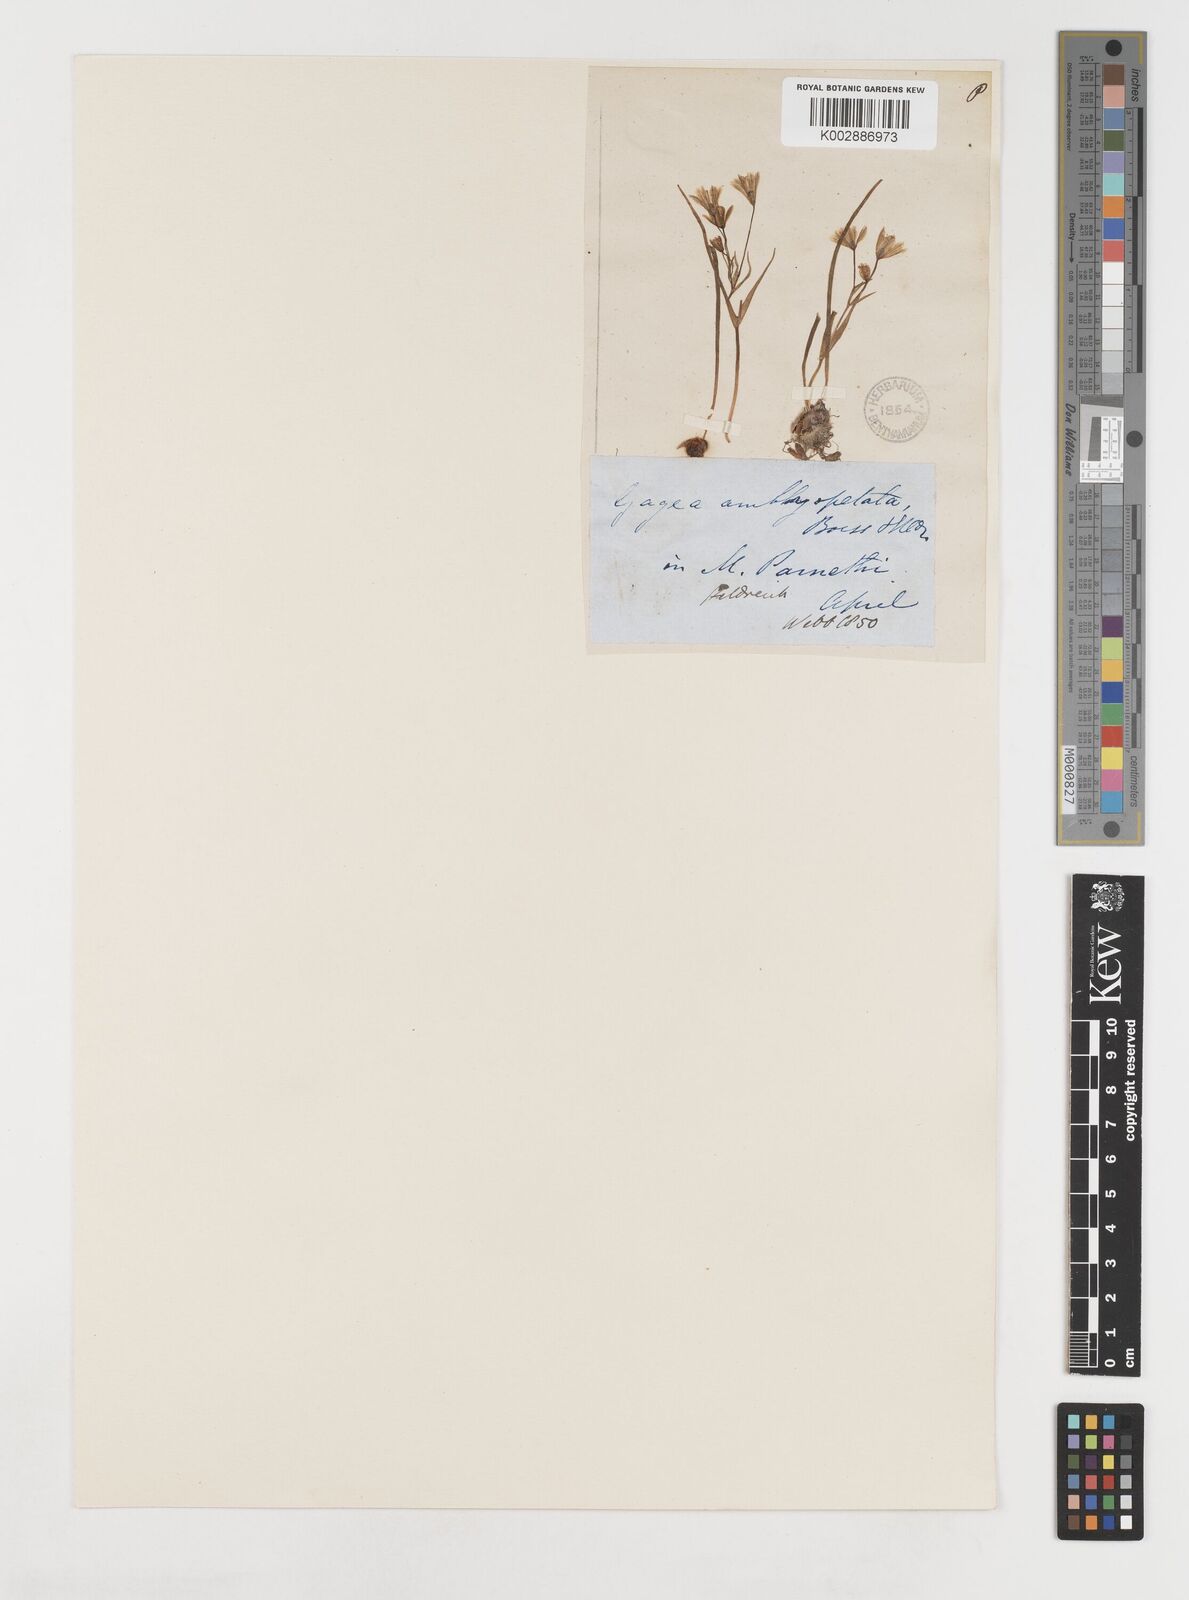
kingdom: Plantae
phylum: Tracheophyta
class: Liliopsida
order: Liliales
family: Liliaceae
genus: Gagea
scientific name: Gagea amblyopetala
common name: Blunt-flowered gagea
